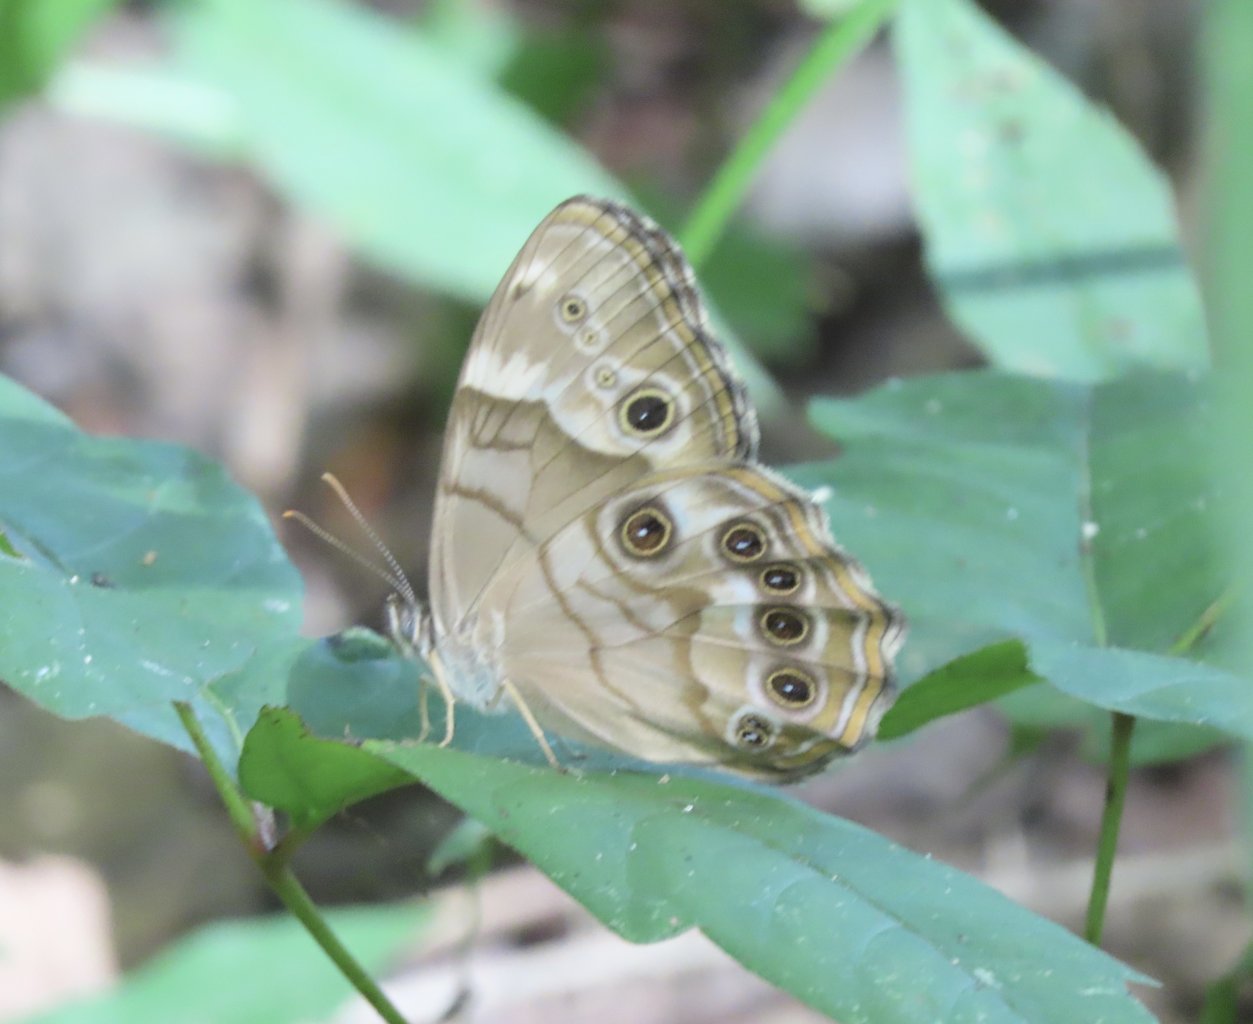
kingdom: Animalia
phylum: Arthropoda
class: Insecta
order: Lepidoptera
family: Nymphalidae
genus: Enodia
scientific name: Enodia portlandia
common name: Southern Pearly Eye
